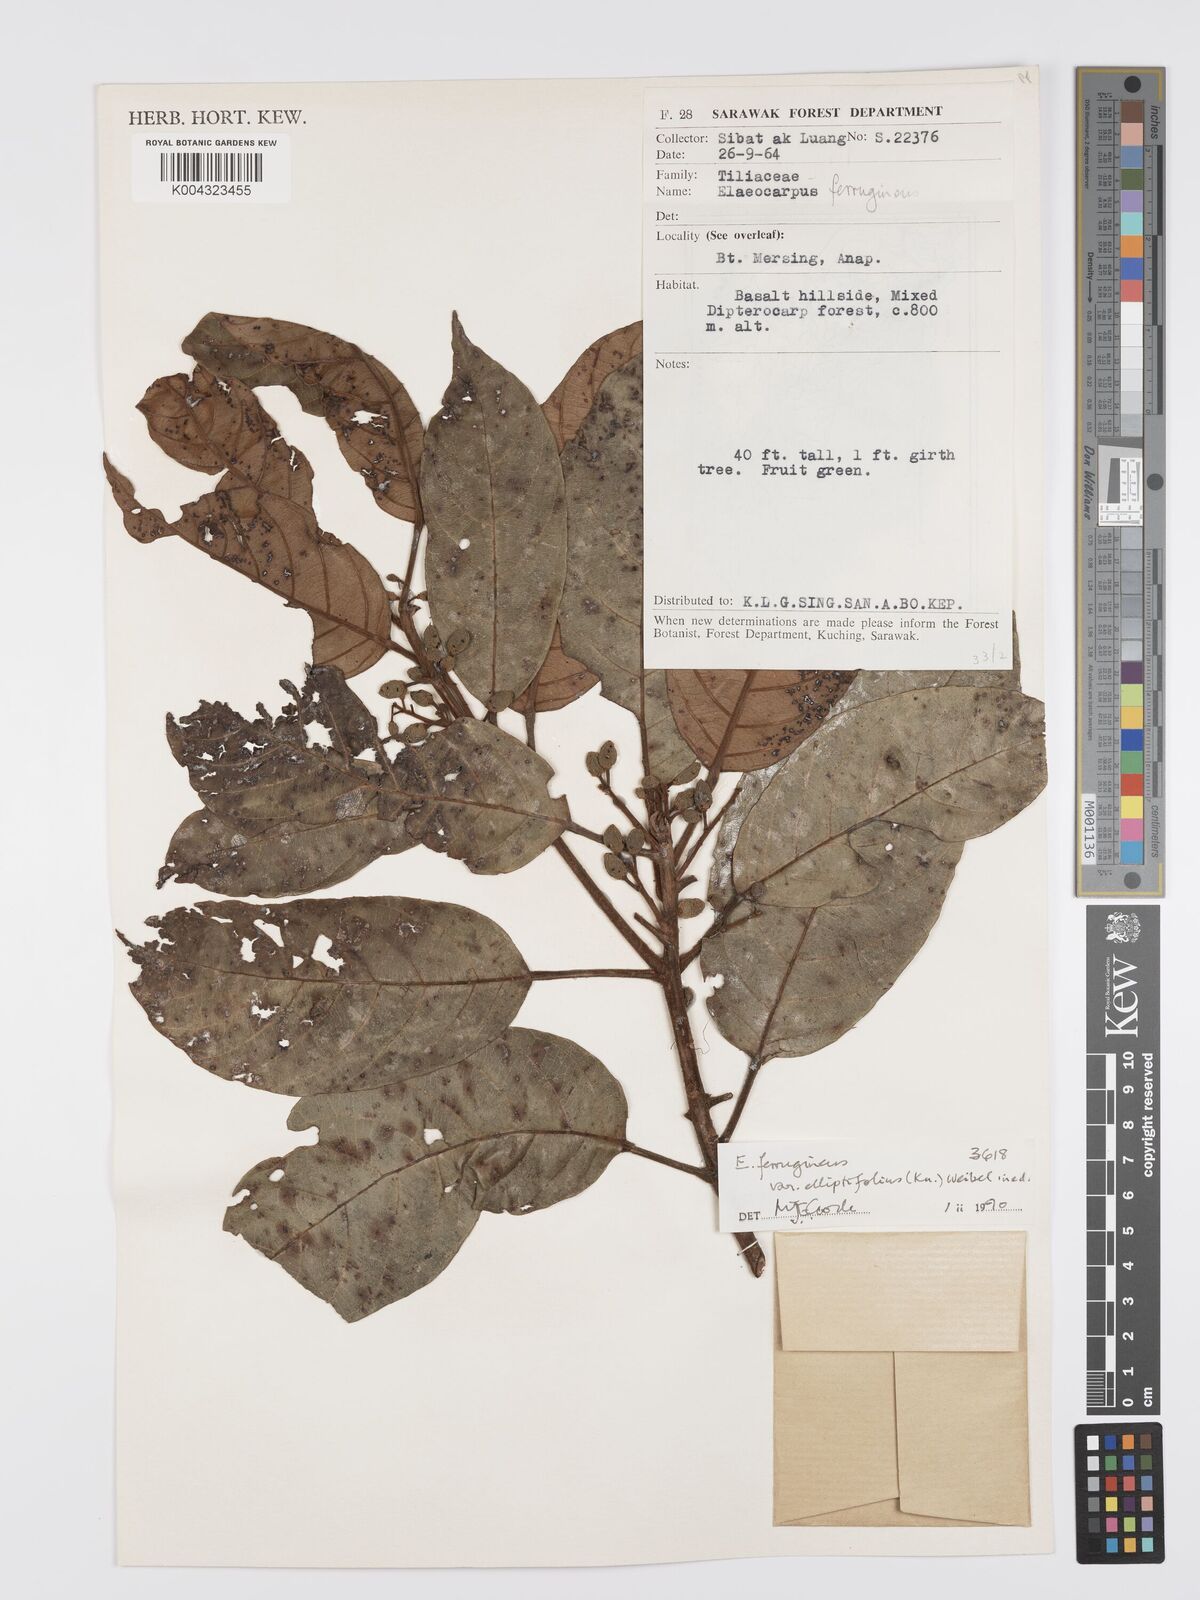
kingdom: Plantae
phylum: Tracheophyta
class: Magnoliopsida
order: Oxalidales
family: Elaeocarpaceae
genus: Elaeocarpus
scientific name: Elaeocarpus ferrugineus
